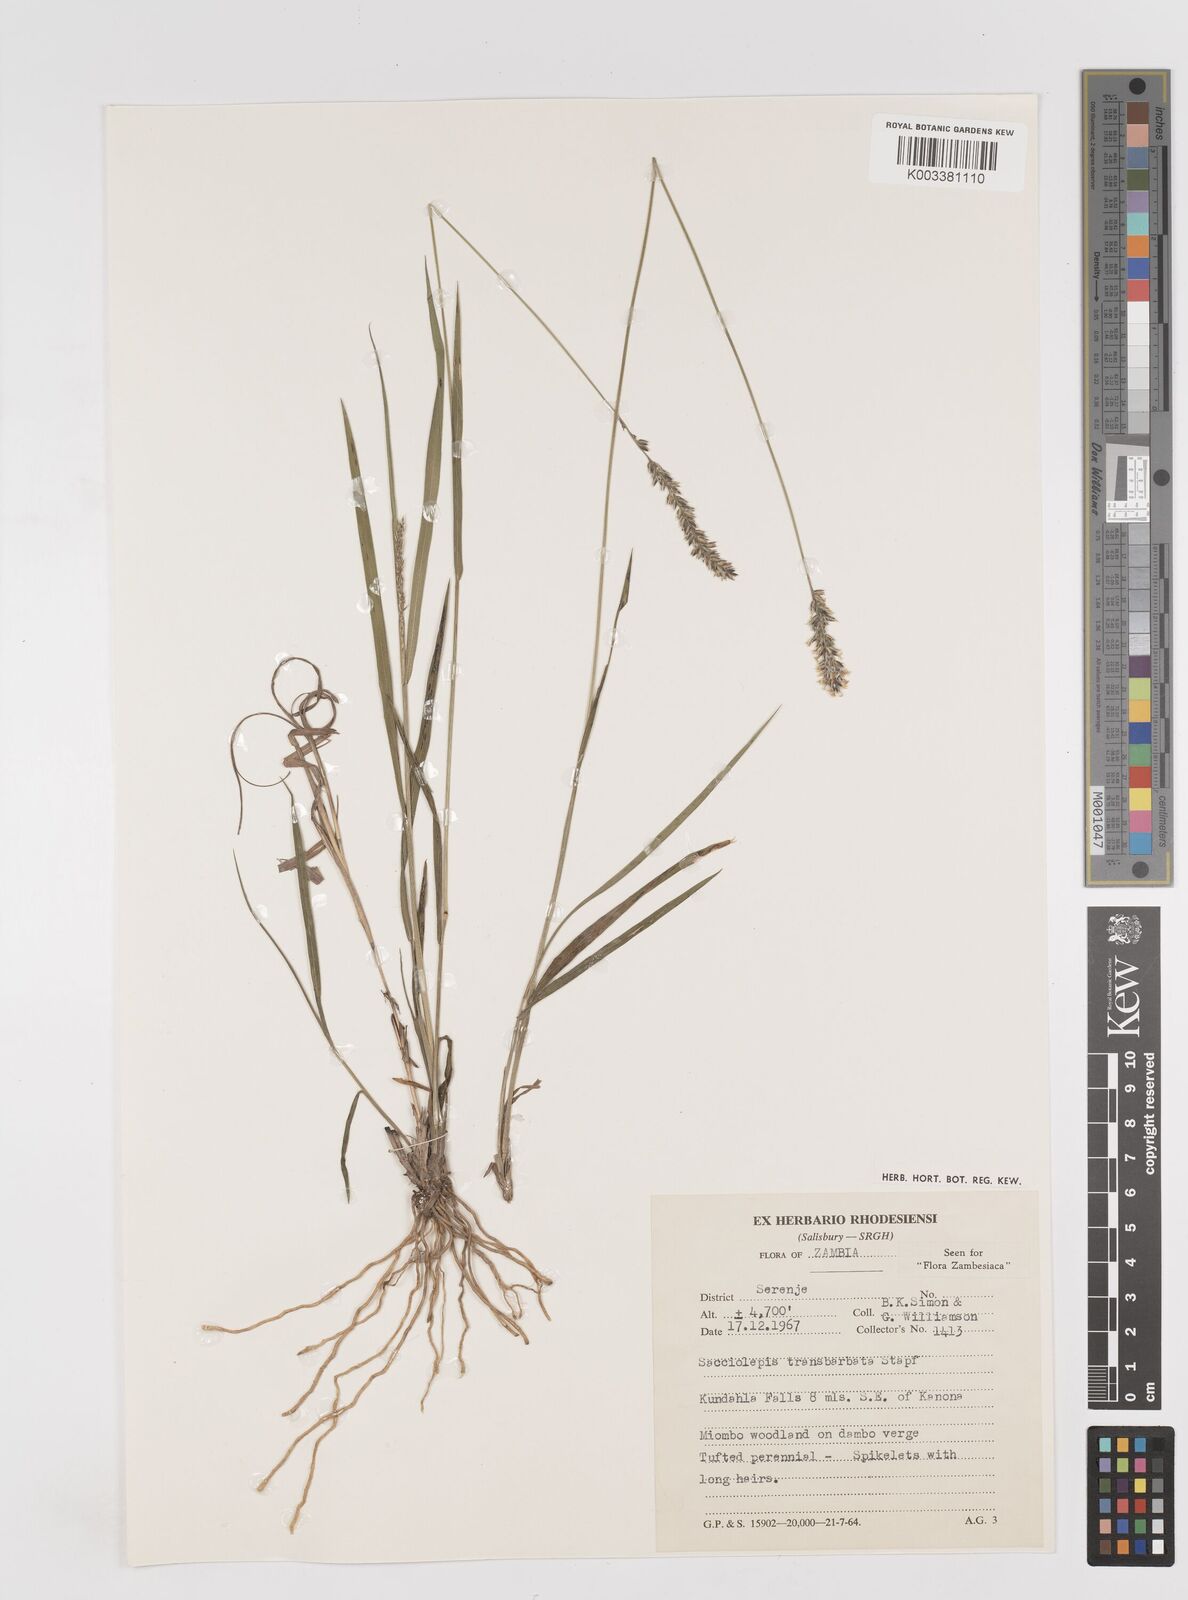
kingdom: Plantae
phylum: Tracheophyta
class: Liliopsida
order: Poales
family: Poaceae
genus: Sacciolepis
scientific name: Sacciolepis transbarbata
